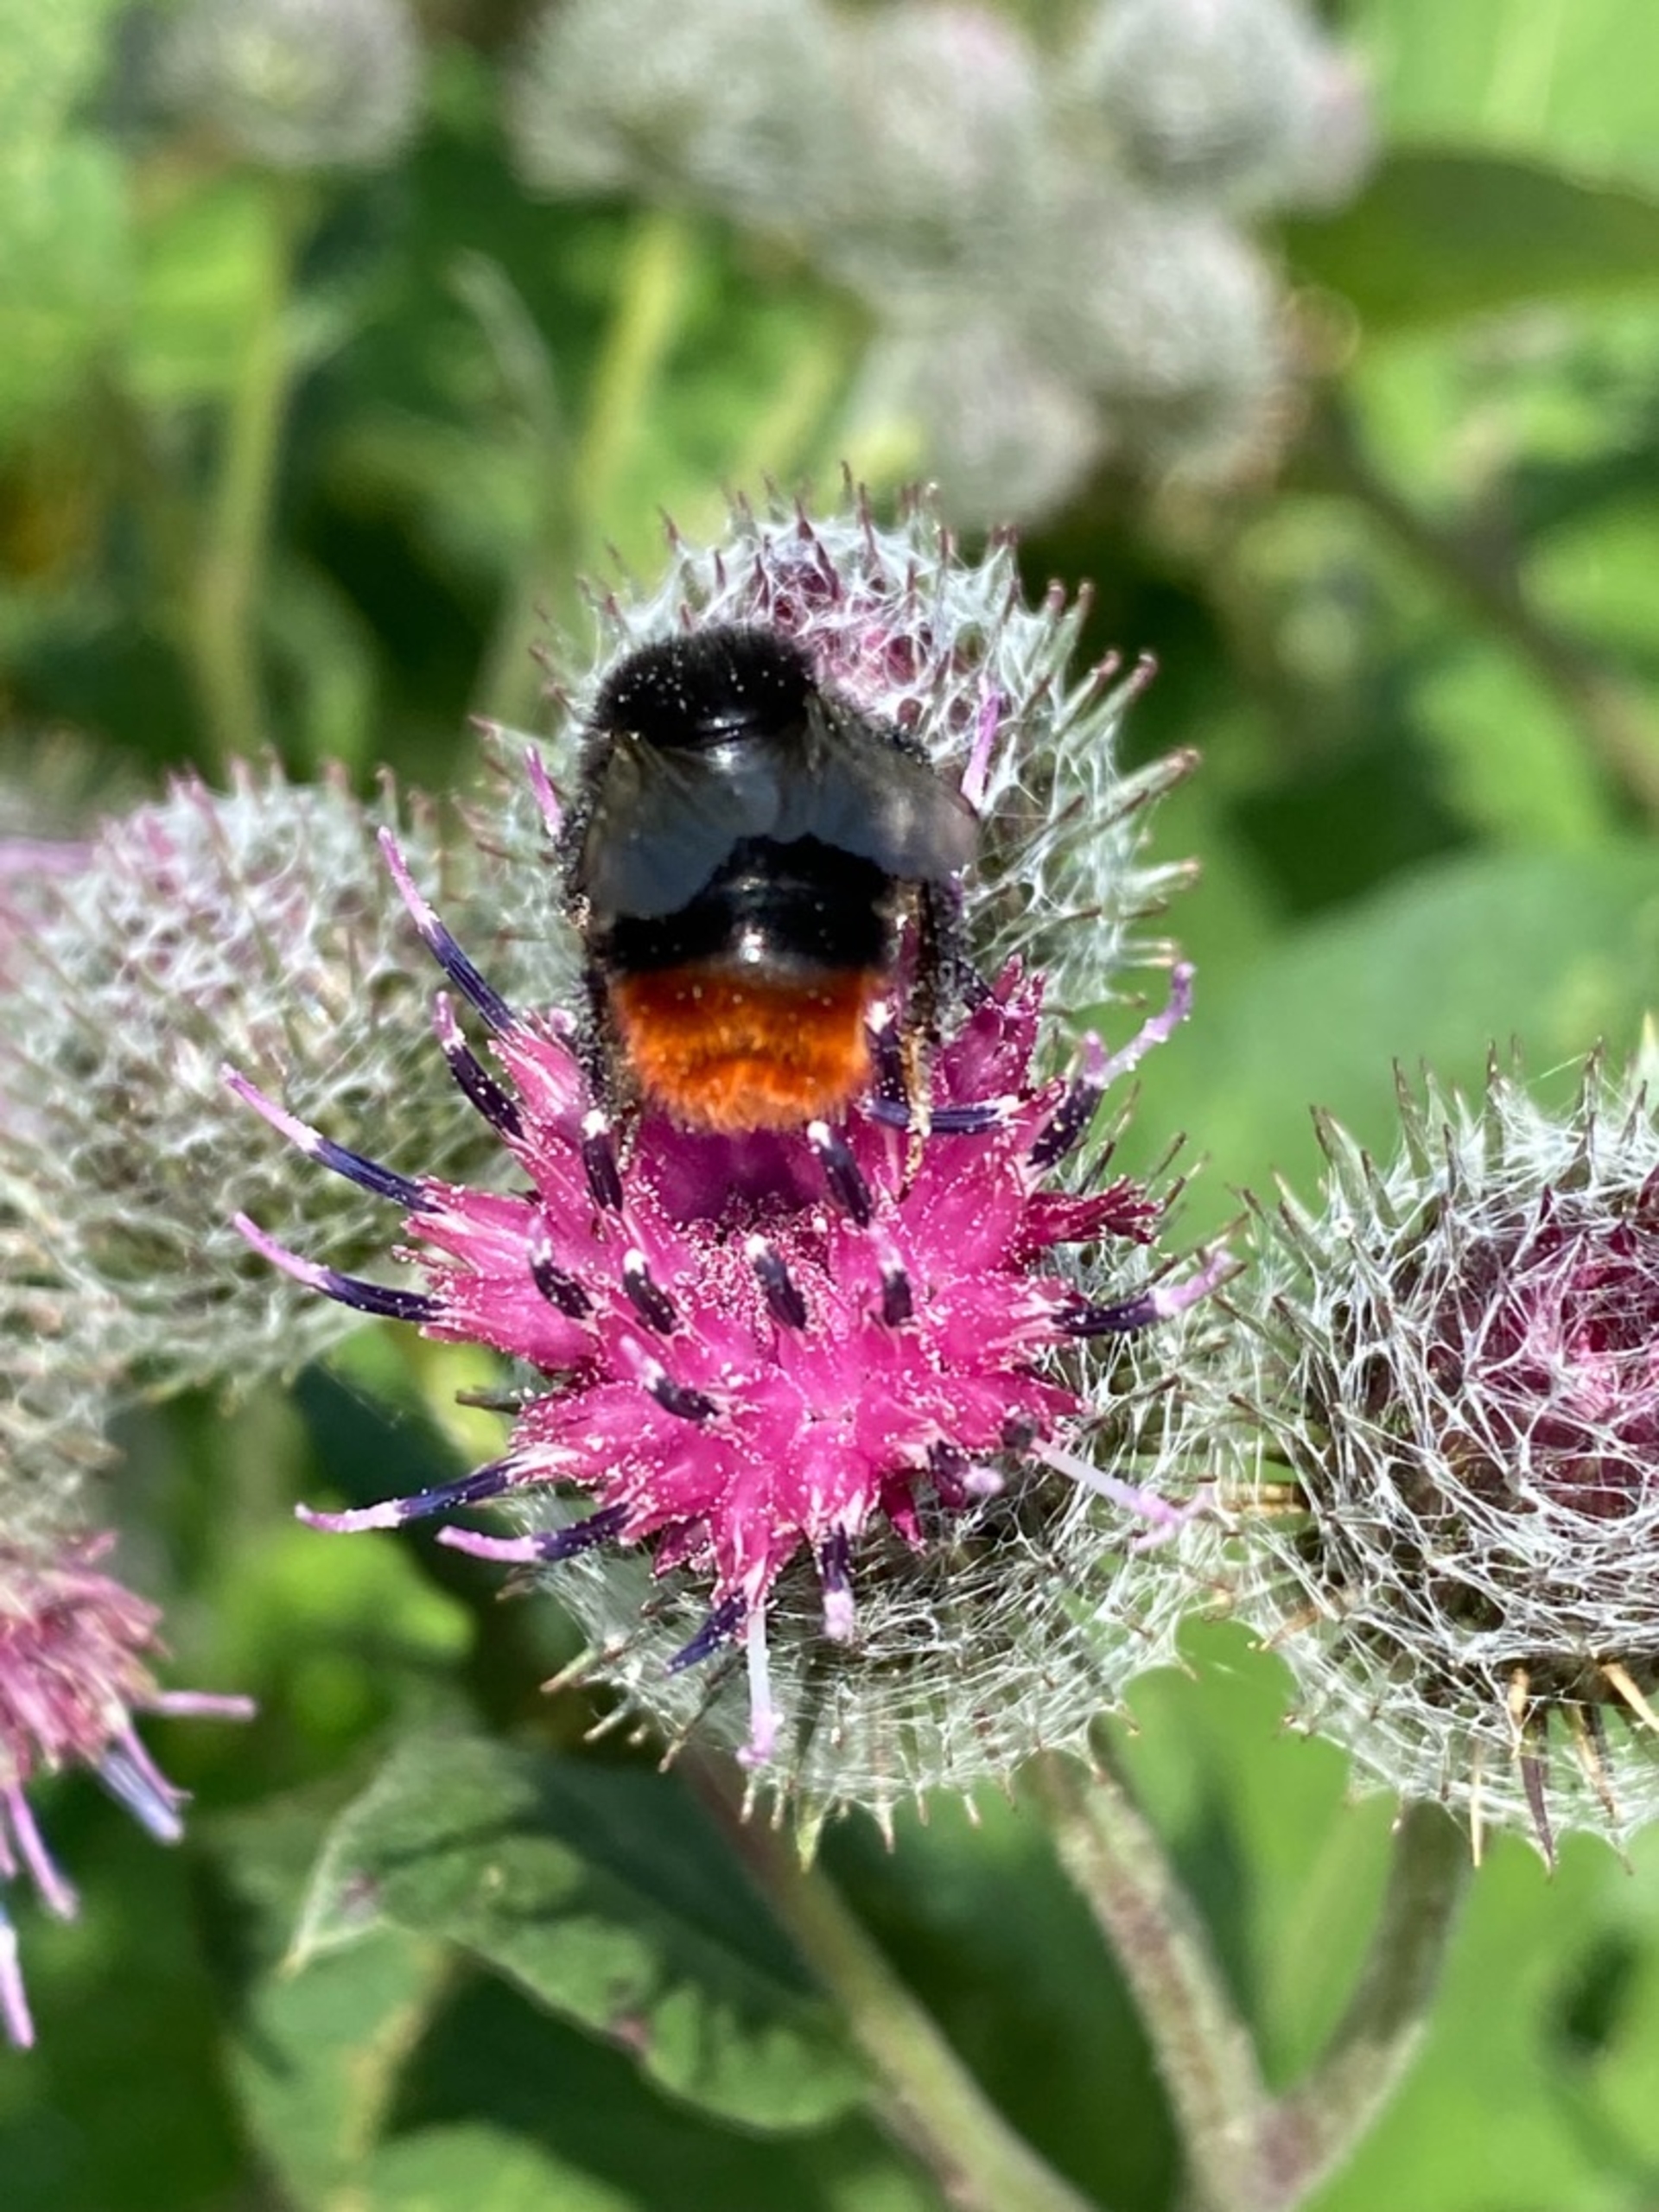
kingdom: Animalia
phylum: Arthropoda
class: Insecta
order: Hymenoptera
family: Apidae
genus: Bombus
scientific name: Bombus lapidarius
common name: Stenhumle
